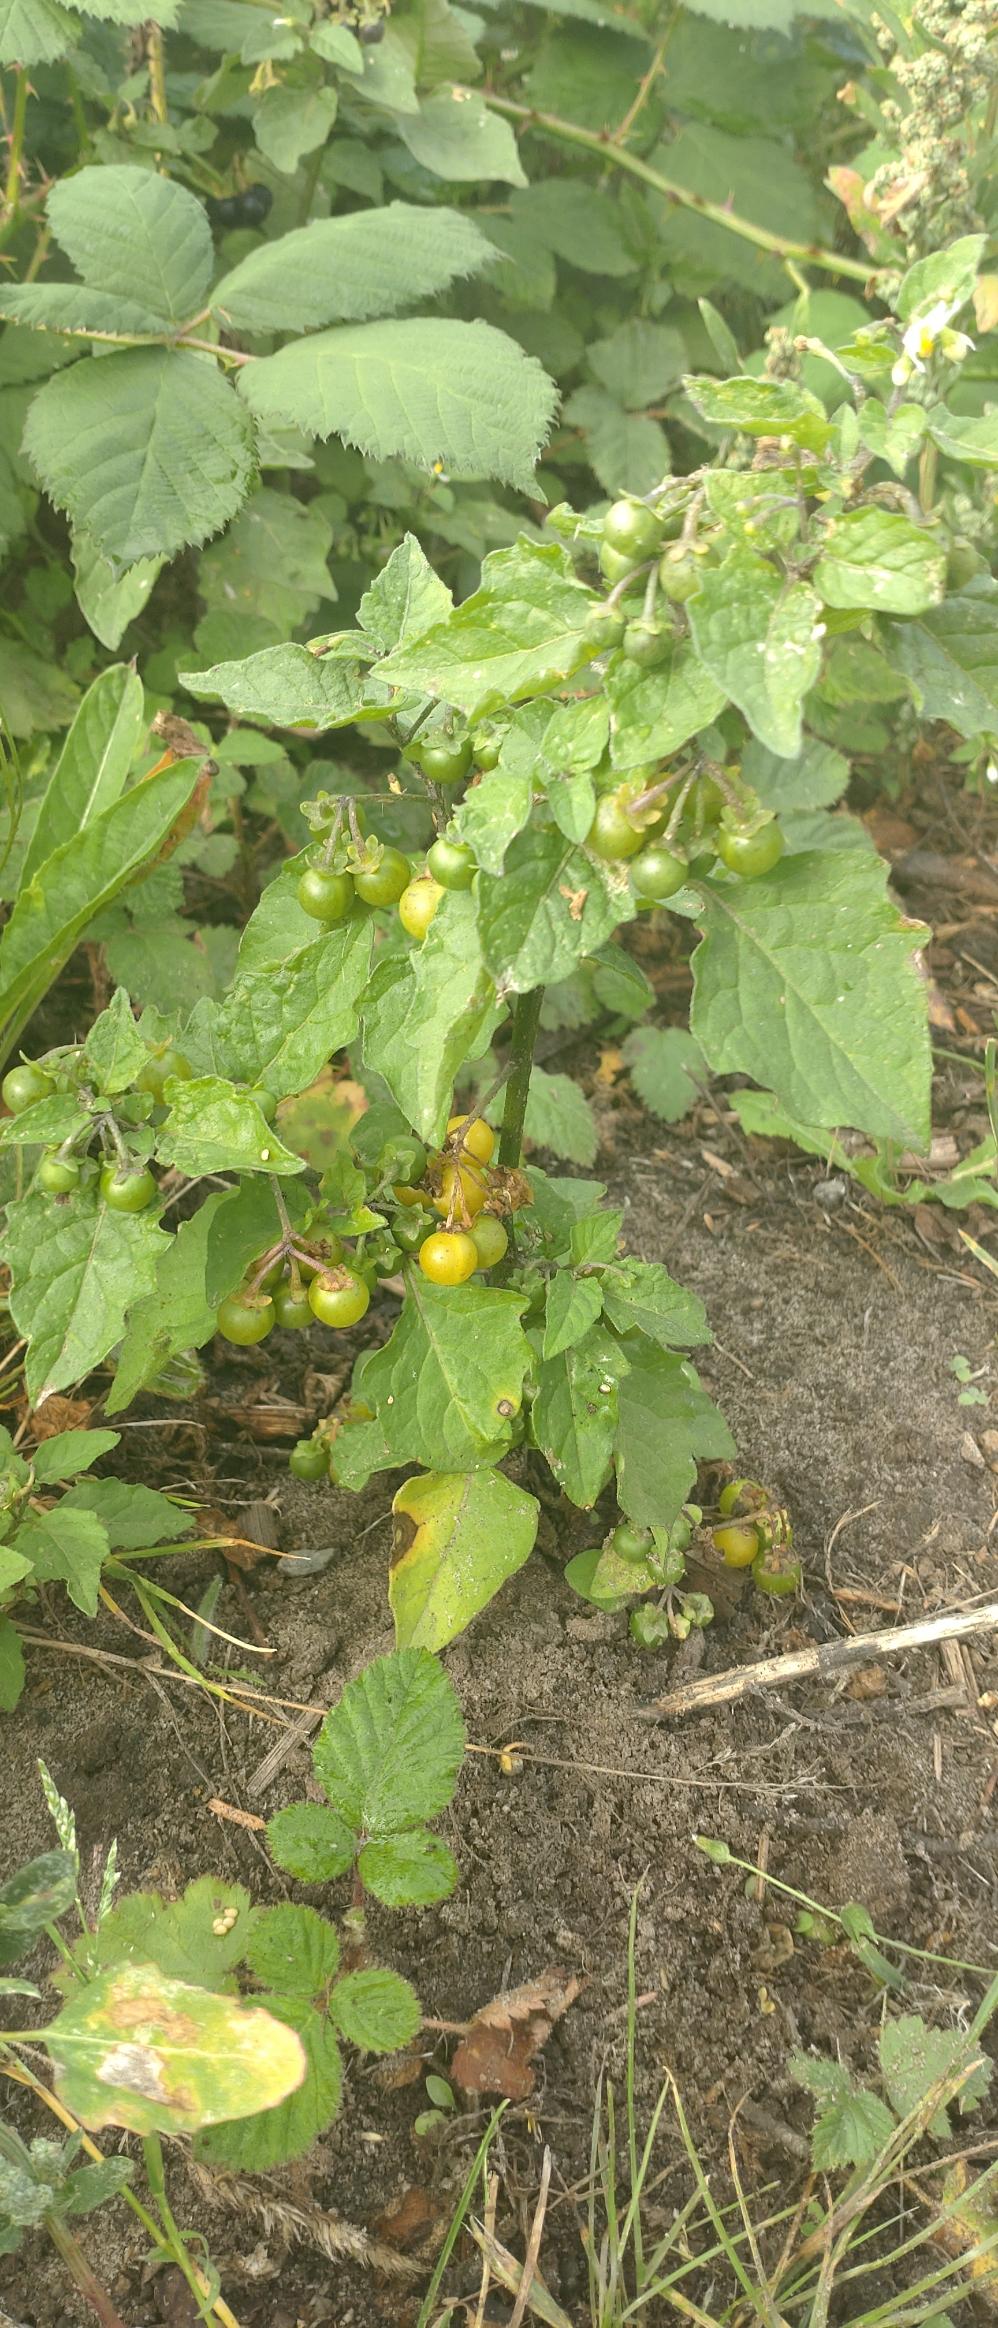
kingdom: Plantae
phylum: Tracheophyta
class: Magnoliopsida
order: Solanales
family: Solanaceae
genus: Solanum
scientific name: Solanum villosum
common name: Højrød natskygge
